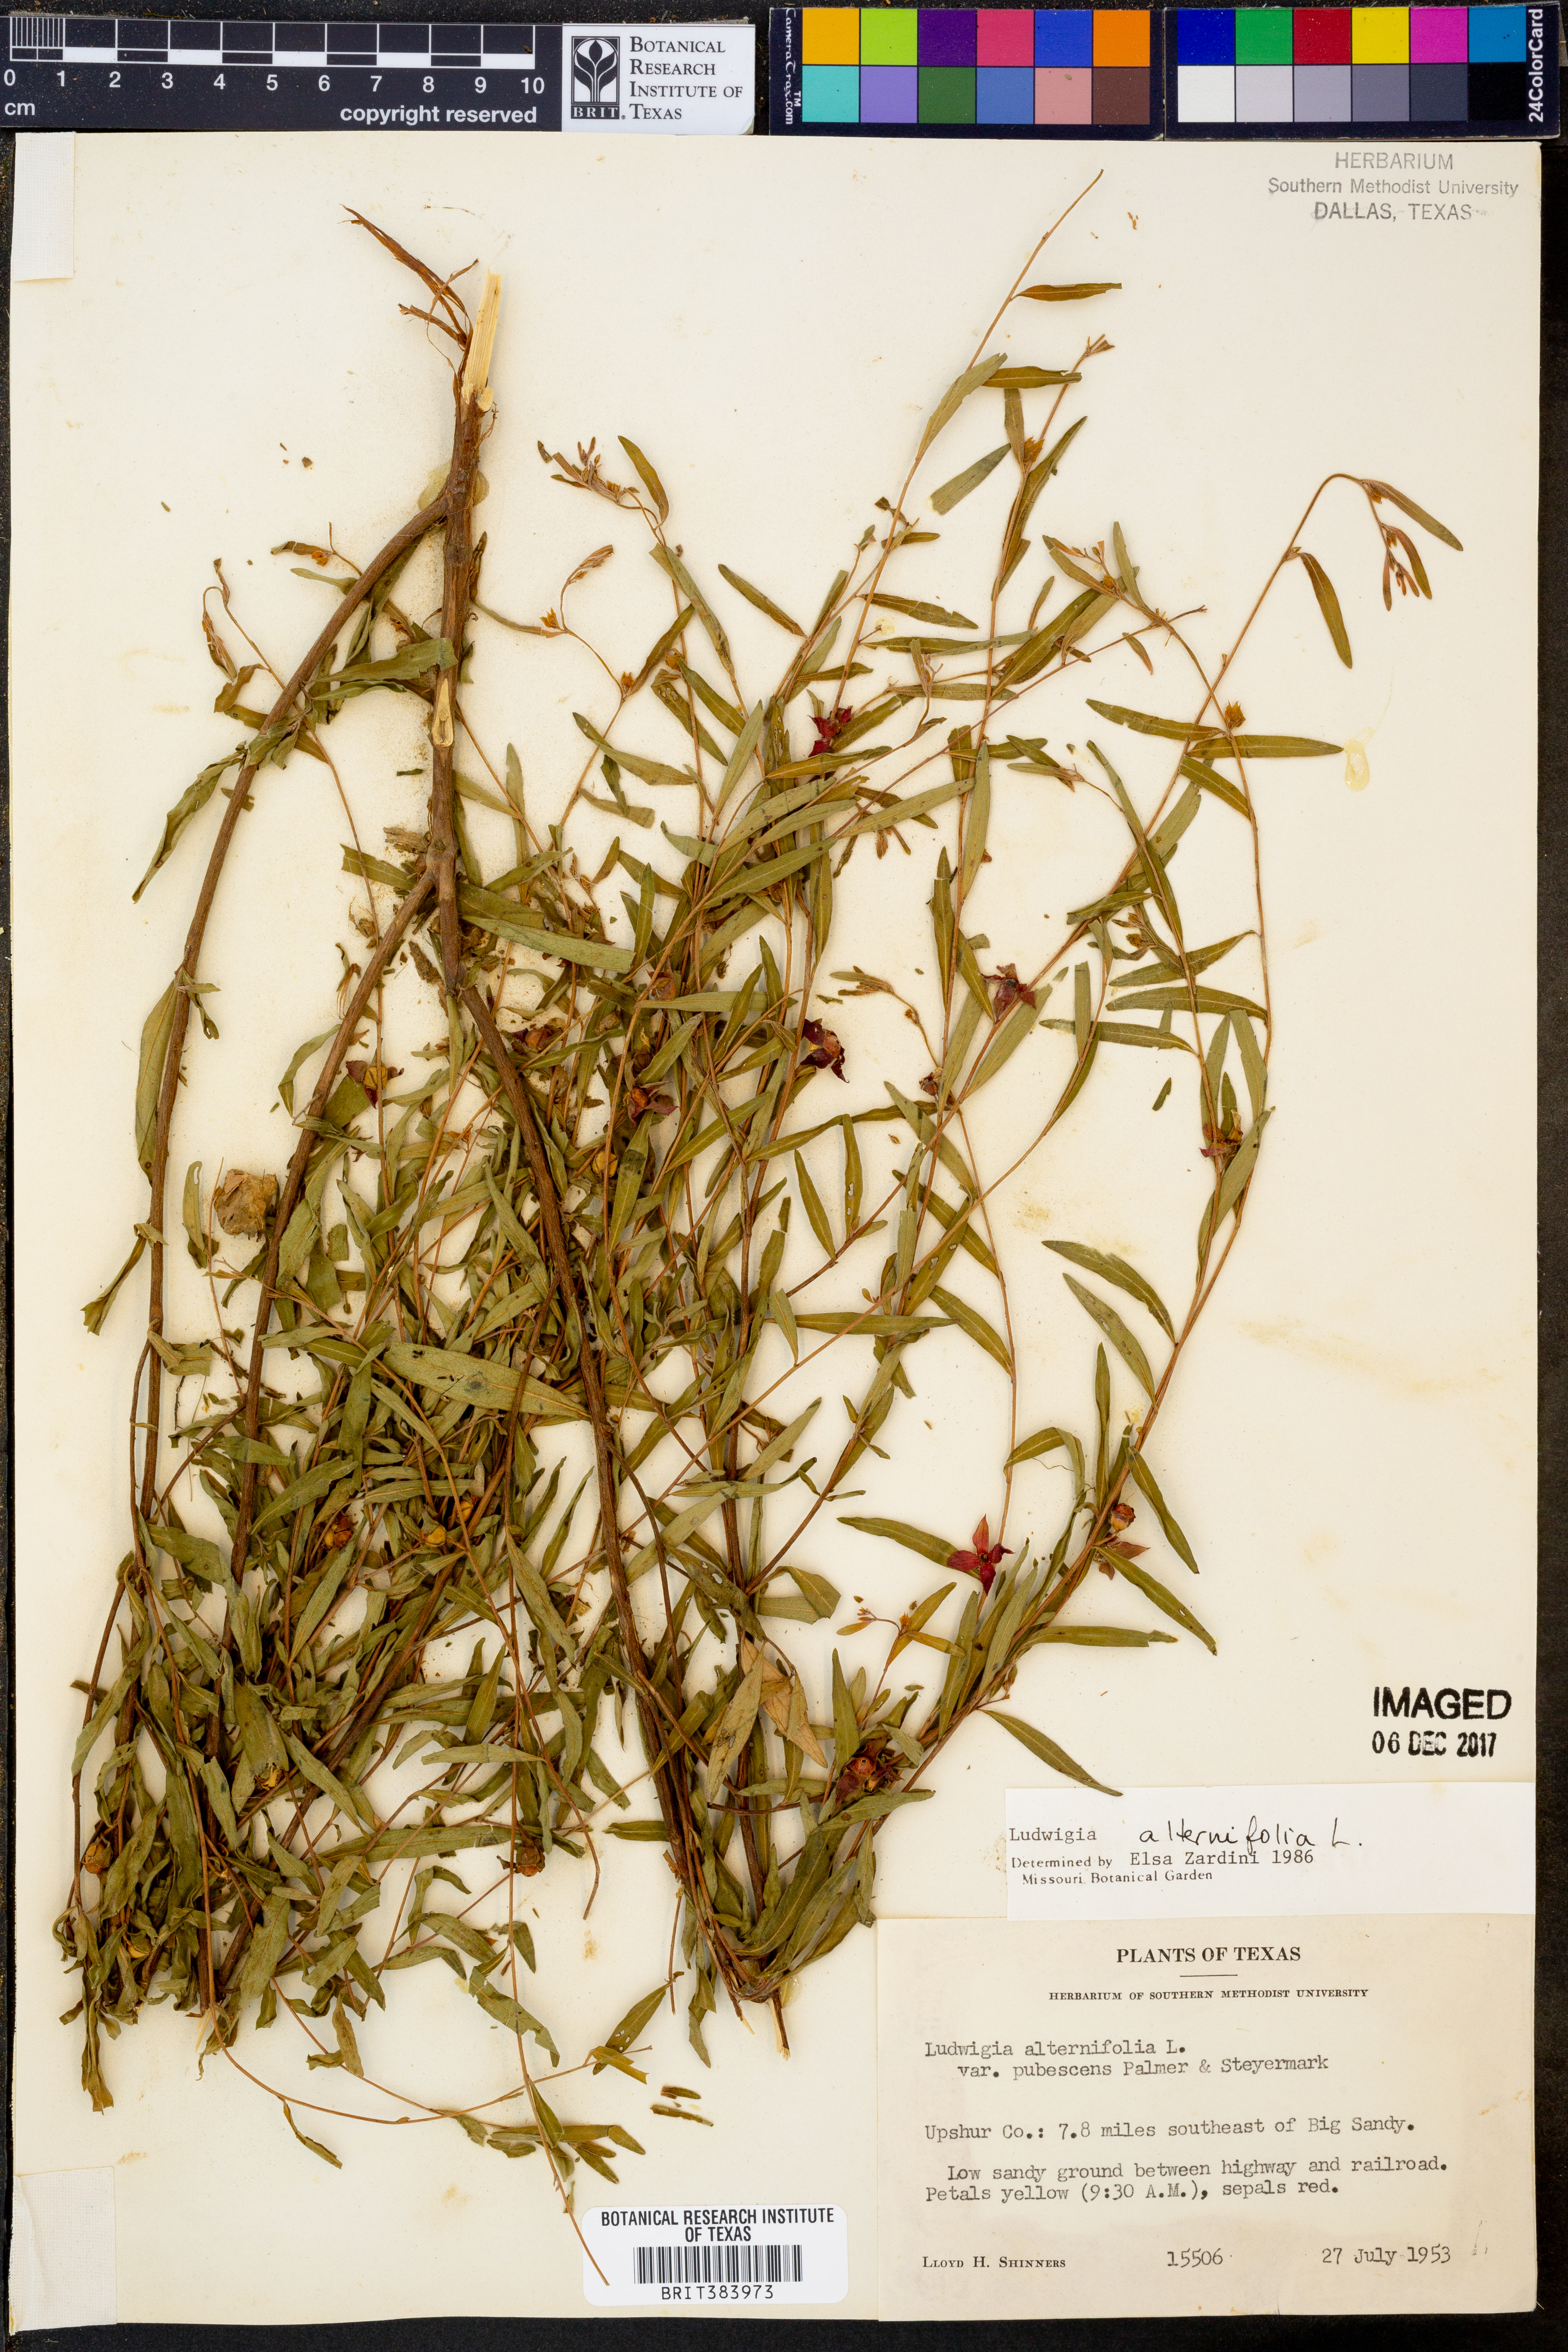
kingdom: Plantae
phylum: Tracheophyta
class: Magnoliopsida
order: Myrtales
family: Onagraceae
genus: Ludwigia
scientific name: Ludwigia alternifolia
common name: Rattlebox
